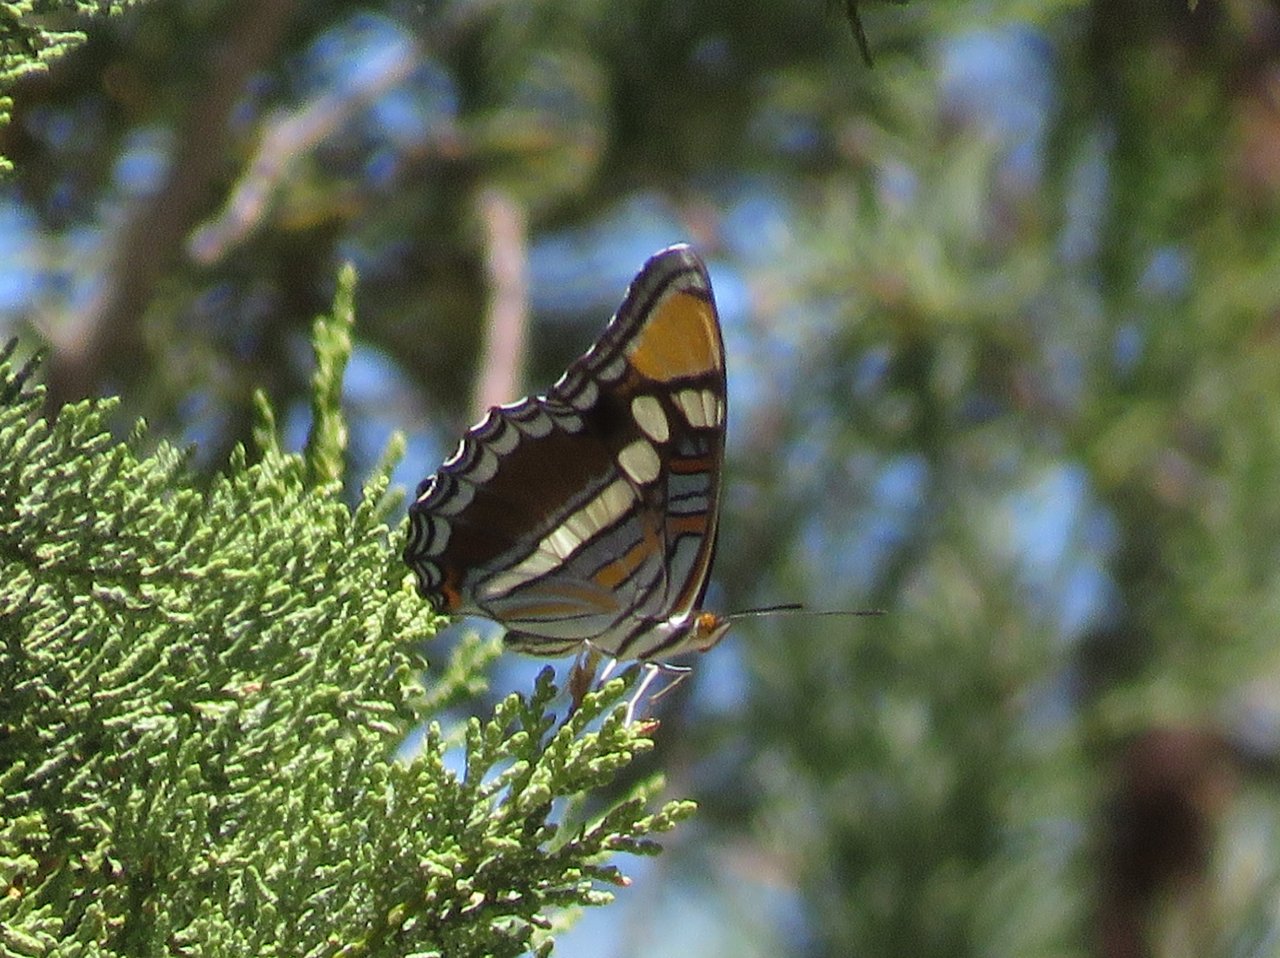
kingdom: Animalia
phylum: Arthropoda
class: Insecta
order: Lepidoptera
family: Nymphalidae
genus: Limenitis
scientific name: Limenitis bredowii
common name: Arizona Sister
